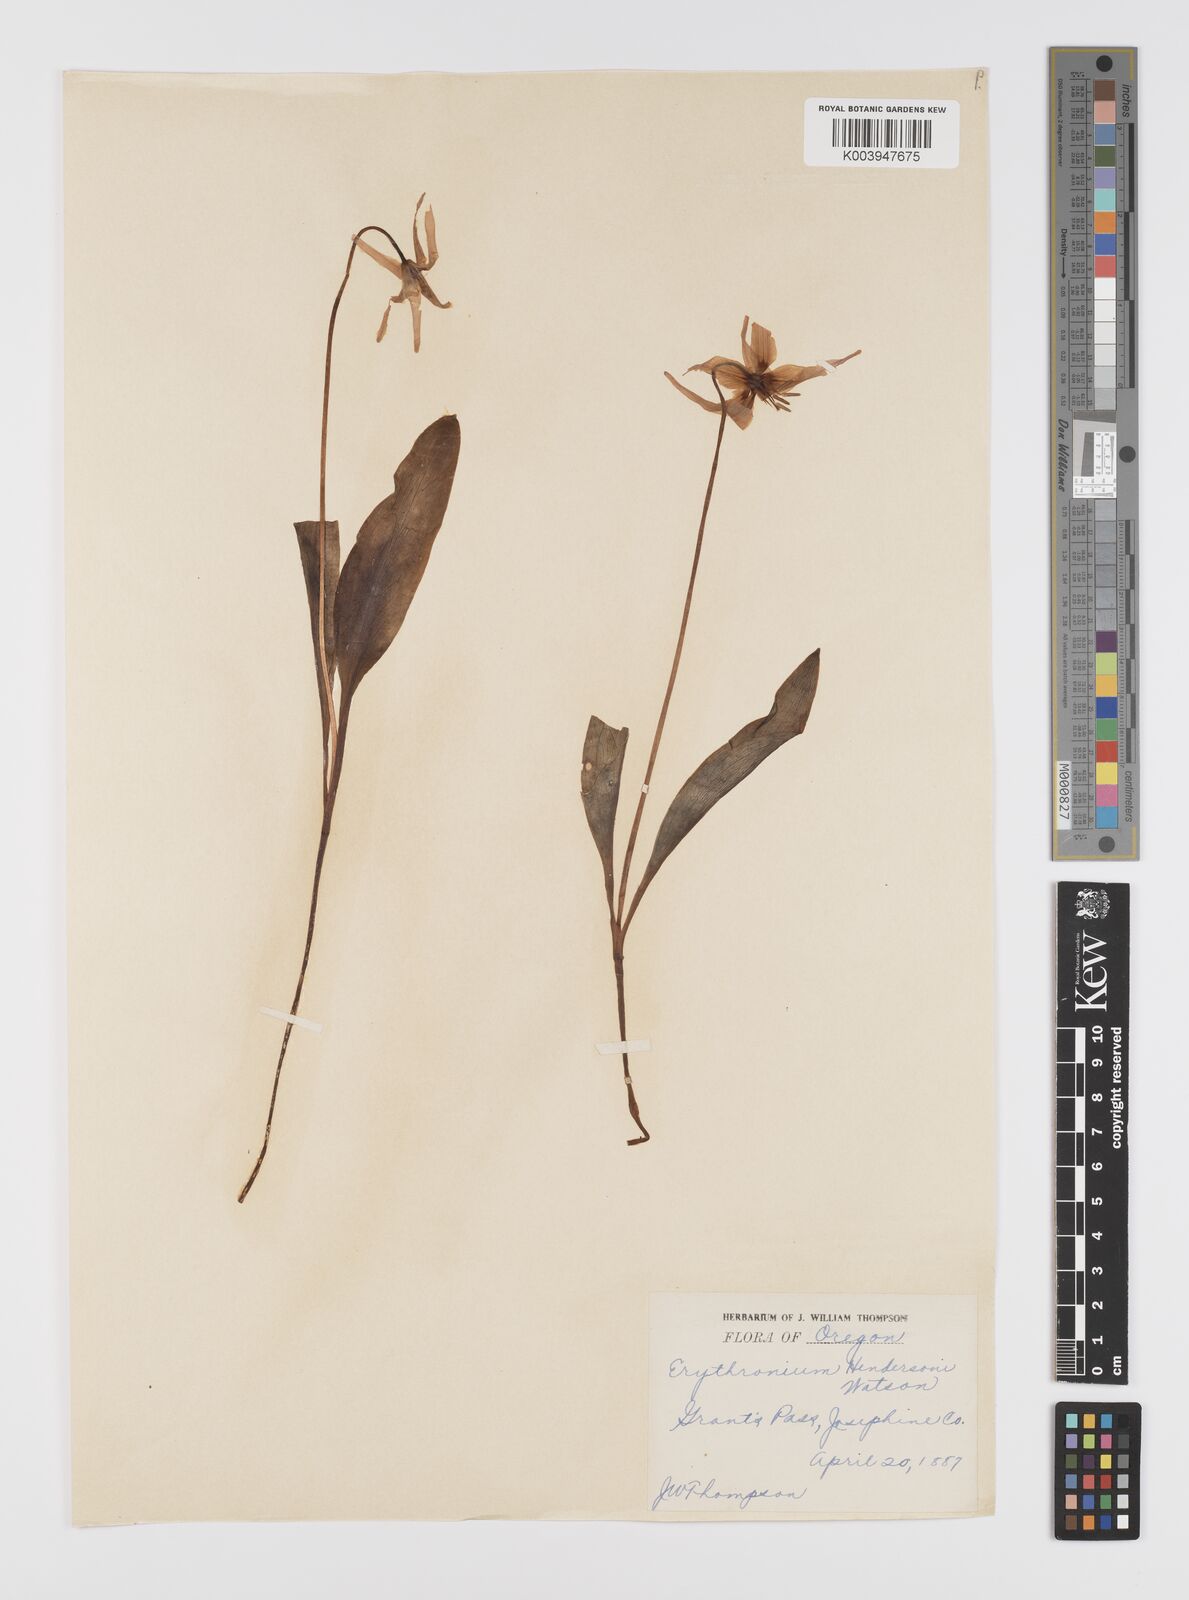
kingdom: Plantae
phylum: Tracheophyta
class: Liliopsida
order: Liliales
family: Liliaceae
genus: Erythronium
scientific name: Erythronium hendersonii
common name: Henderson's fawn-lily
